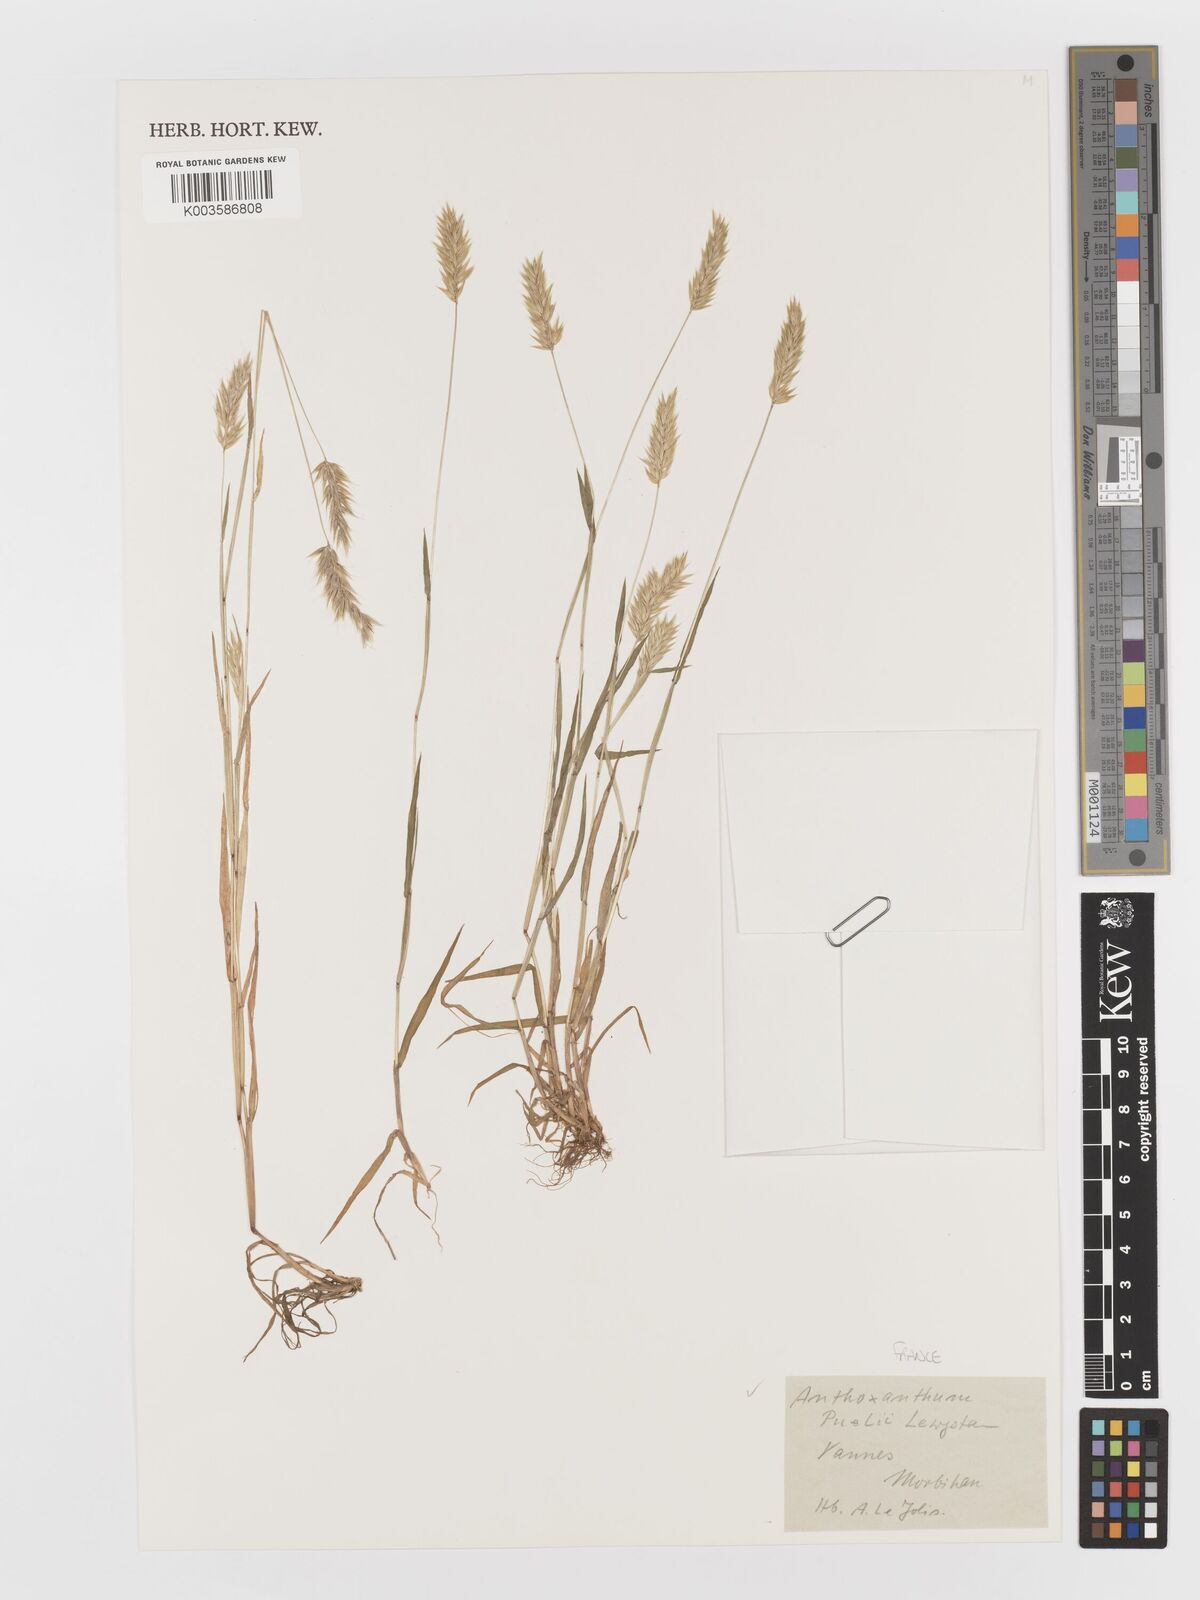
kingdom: Plantae
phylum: Tracheophyta
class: Liliopsida
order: Poales
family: Poaceae
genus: Anthoxanthum
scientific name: Anthoxanthum
